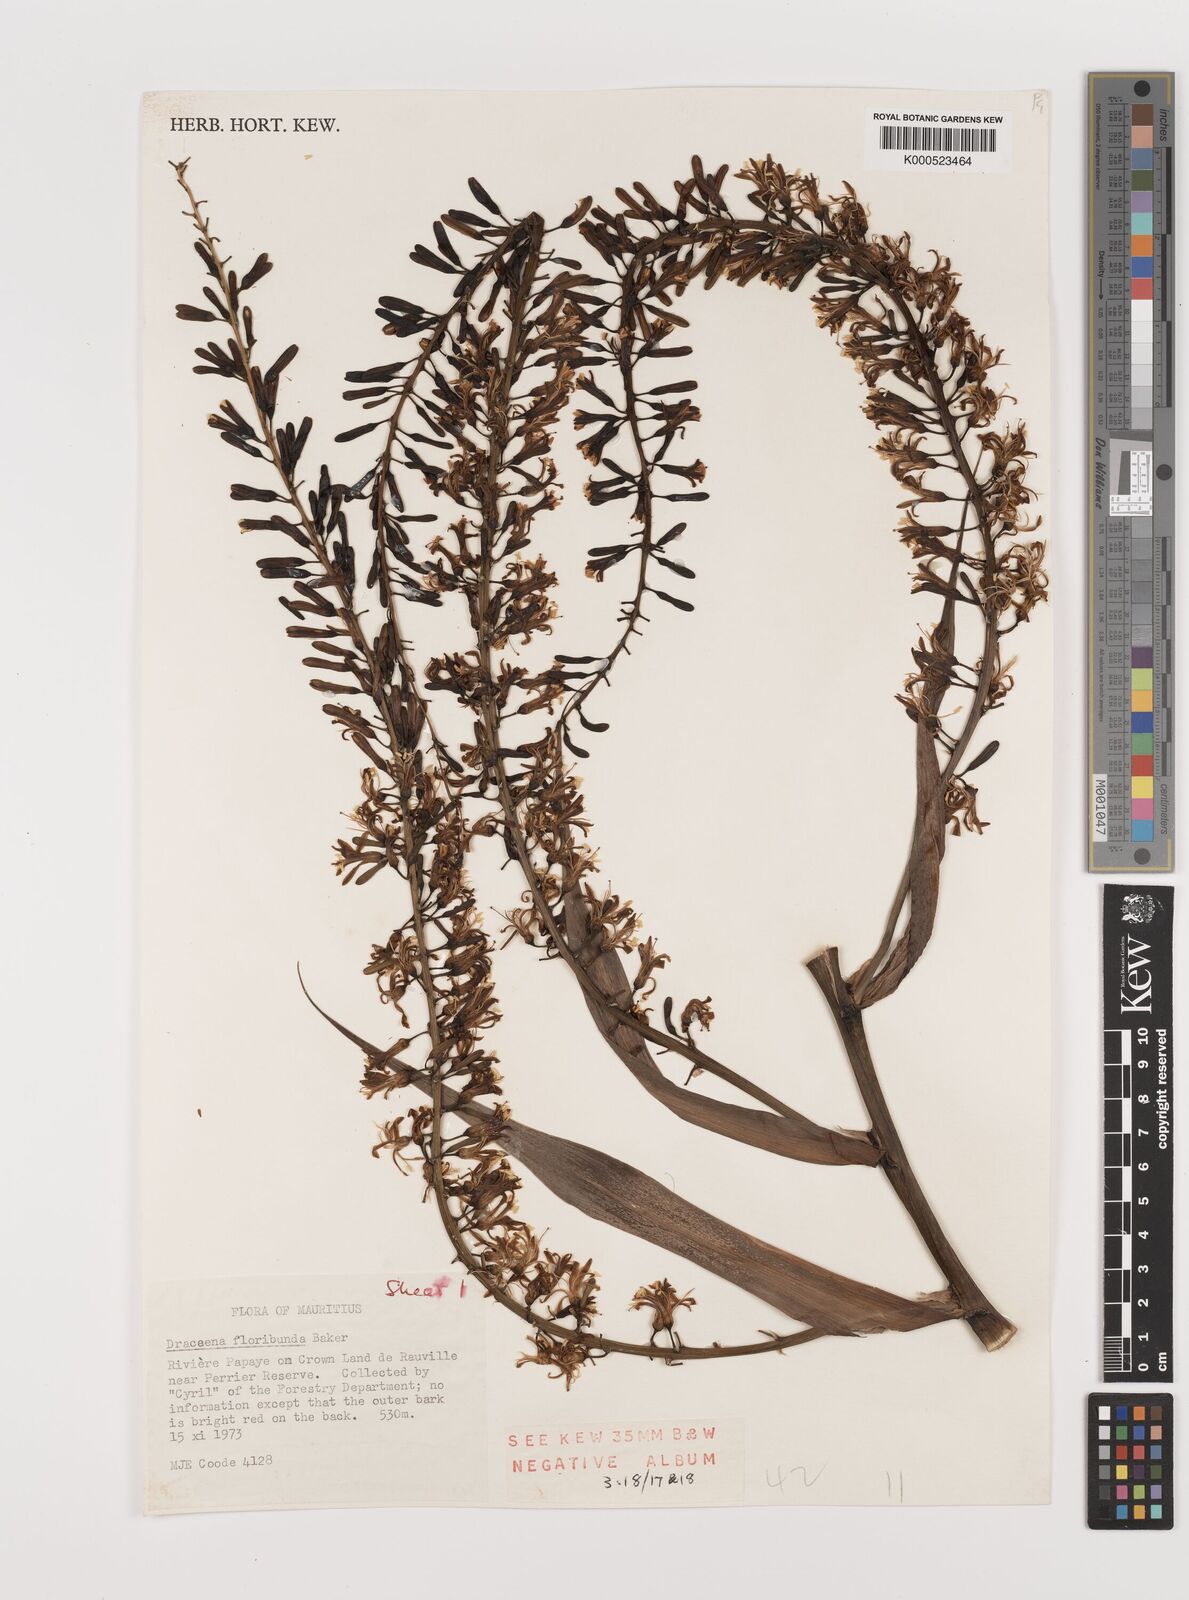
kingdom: Plantae
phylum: Tracheophyta
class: Liliopsida
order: Asparagales
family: Asparagaceae
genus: Dracaena
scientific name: Dracaena floribunda
